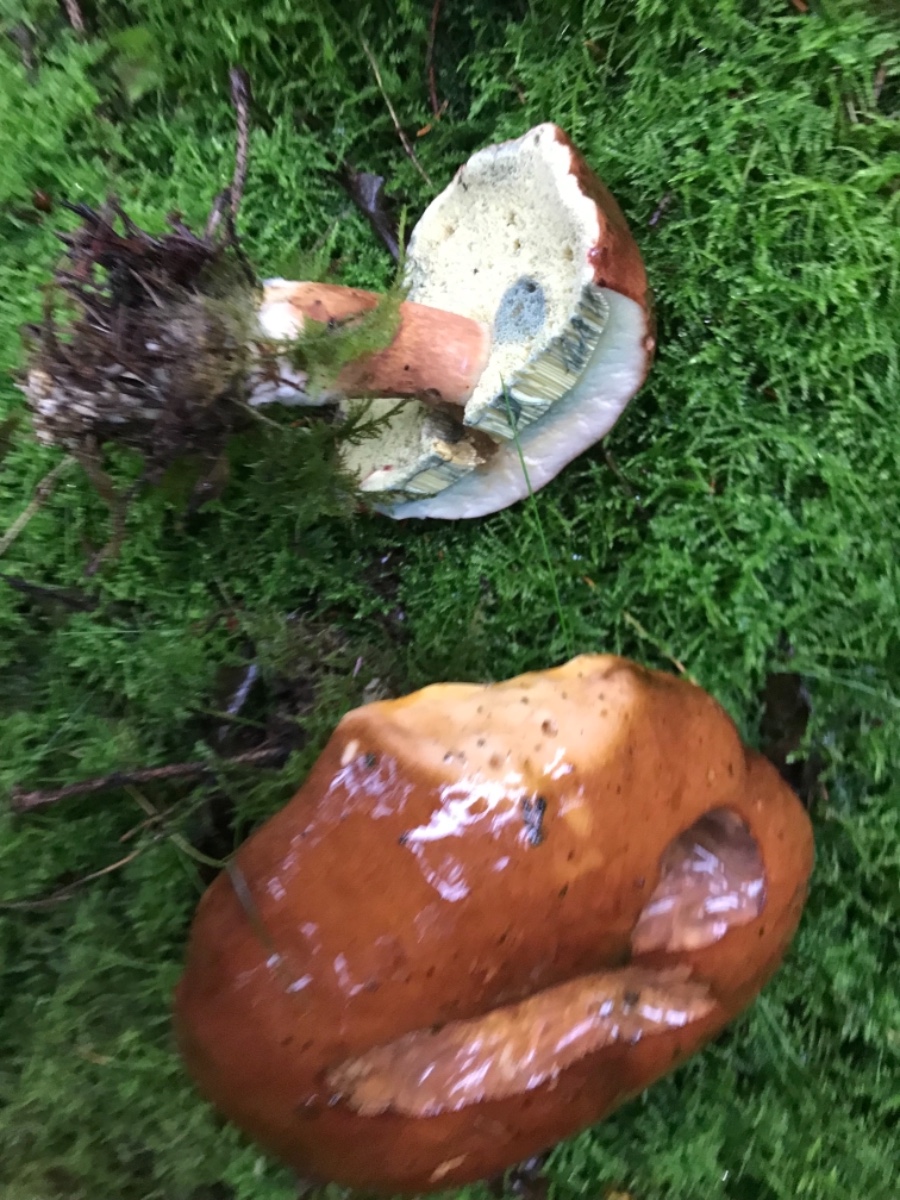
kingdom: Fungi
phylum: Basidiomycota
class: Agaricomycetes
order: Boletales
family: Boletaceae
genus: Imleria
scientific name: Imleria badia
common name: brunstokket rørhat
